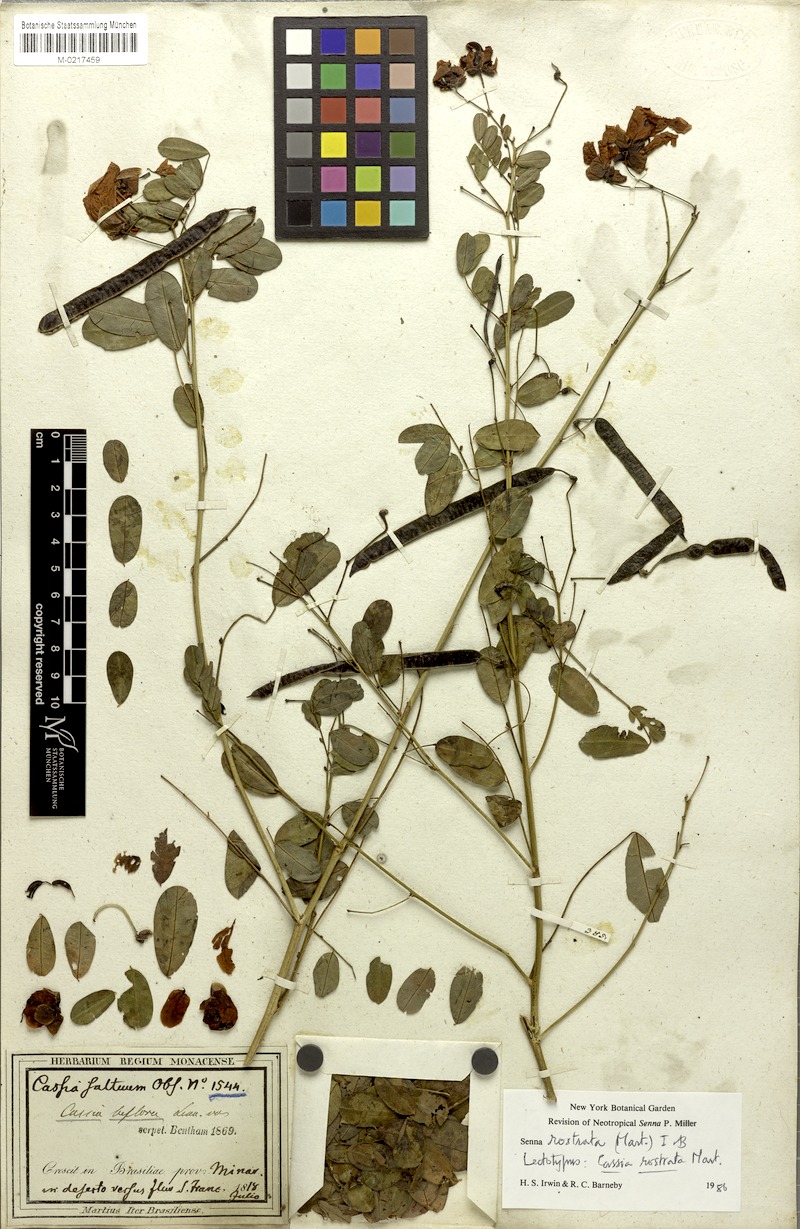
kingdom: Plantae
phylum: Tracheophyta
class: Magnoliopsida
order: Fabales
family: Fabaceae
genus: Senna
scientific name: Senna rostrata
